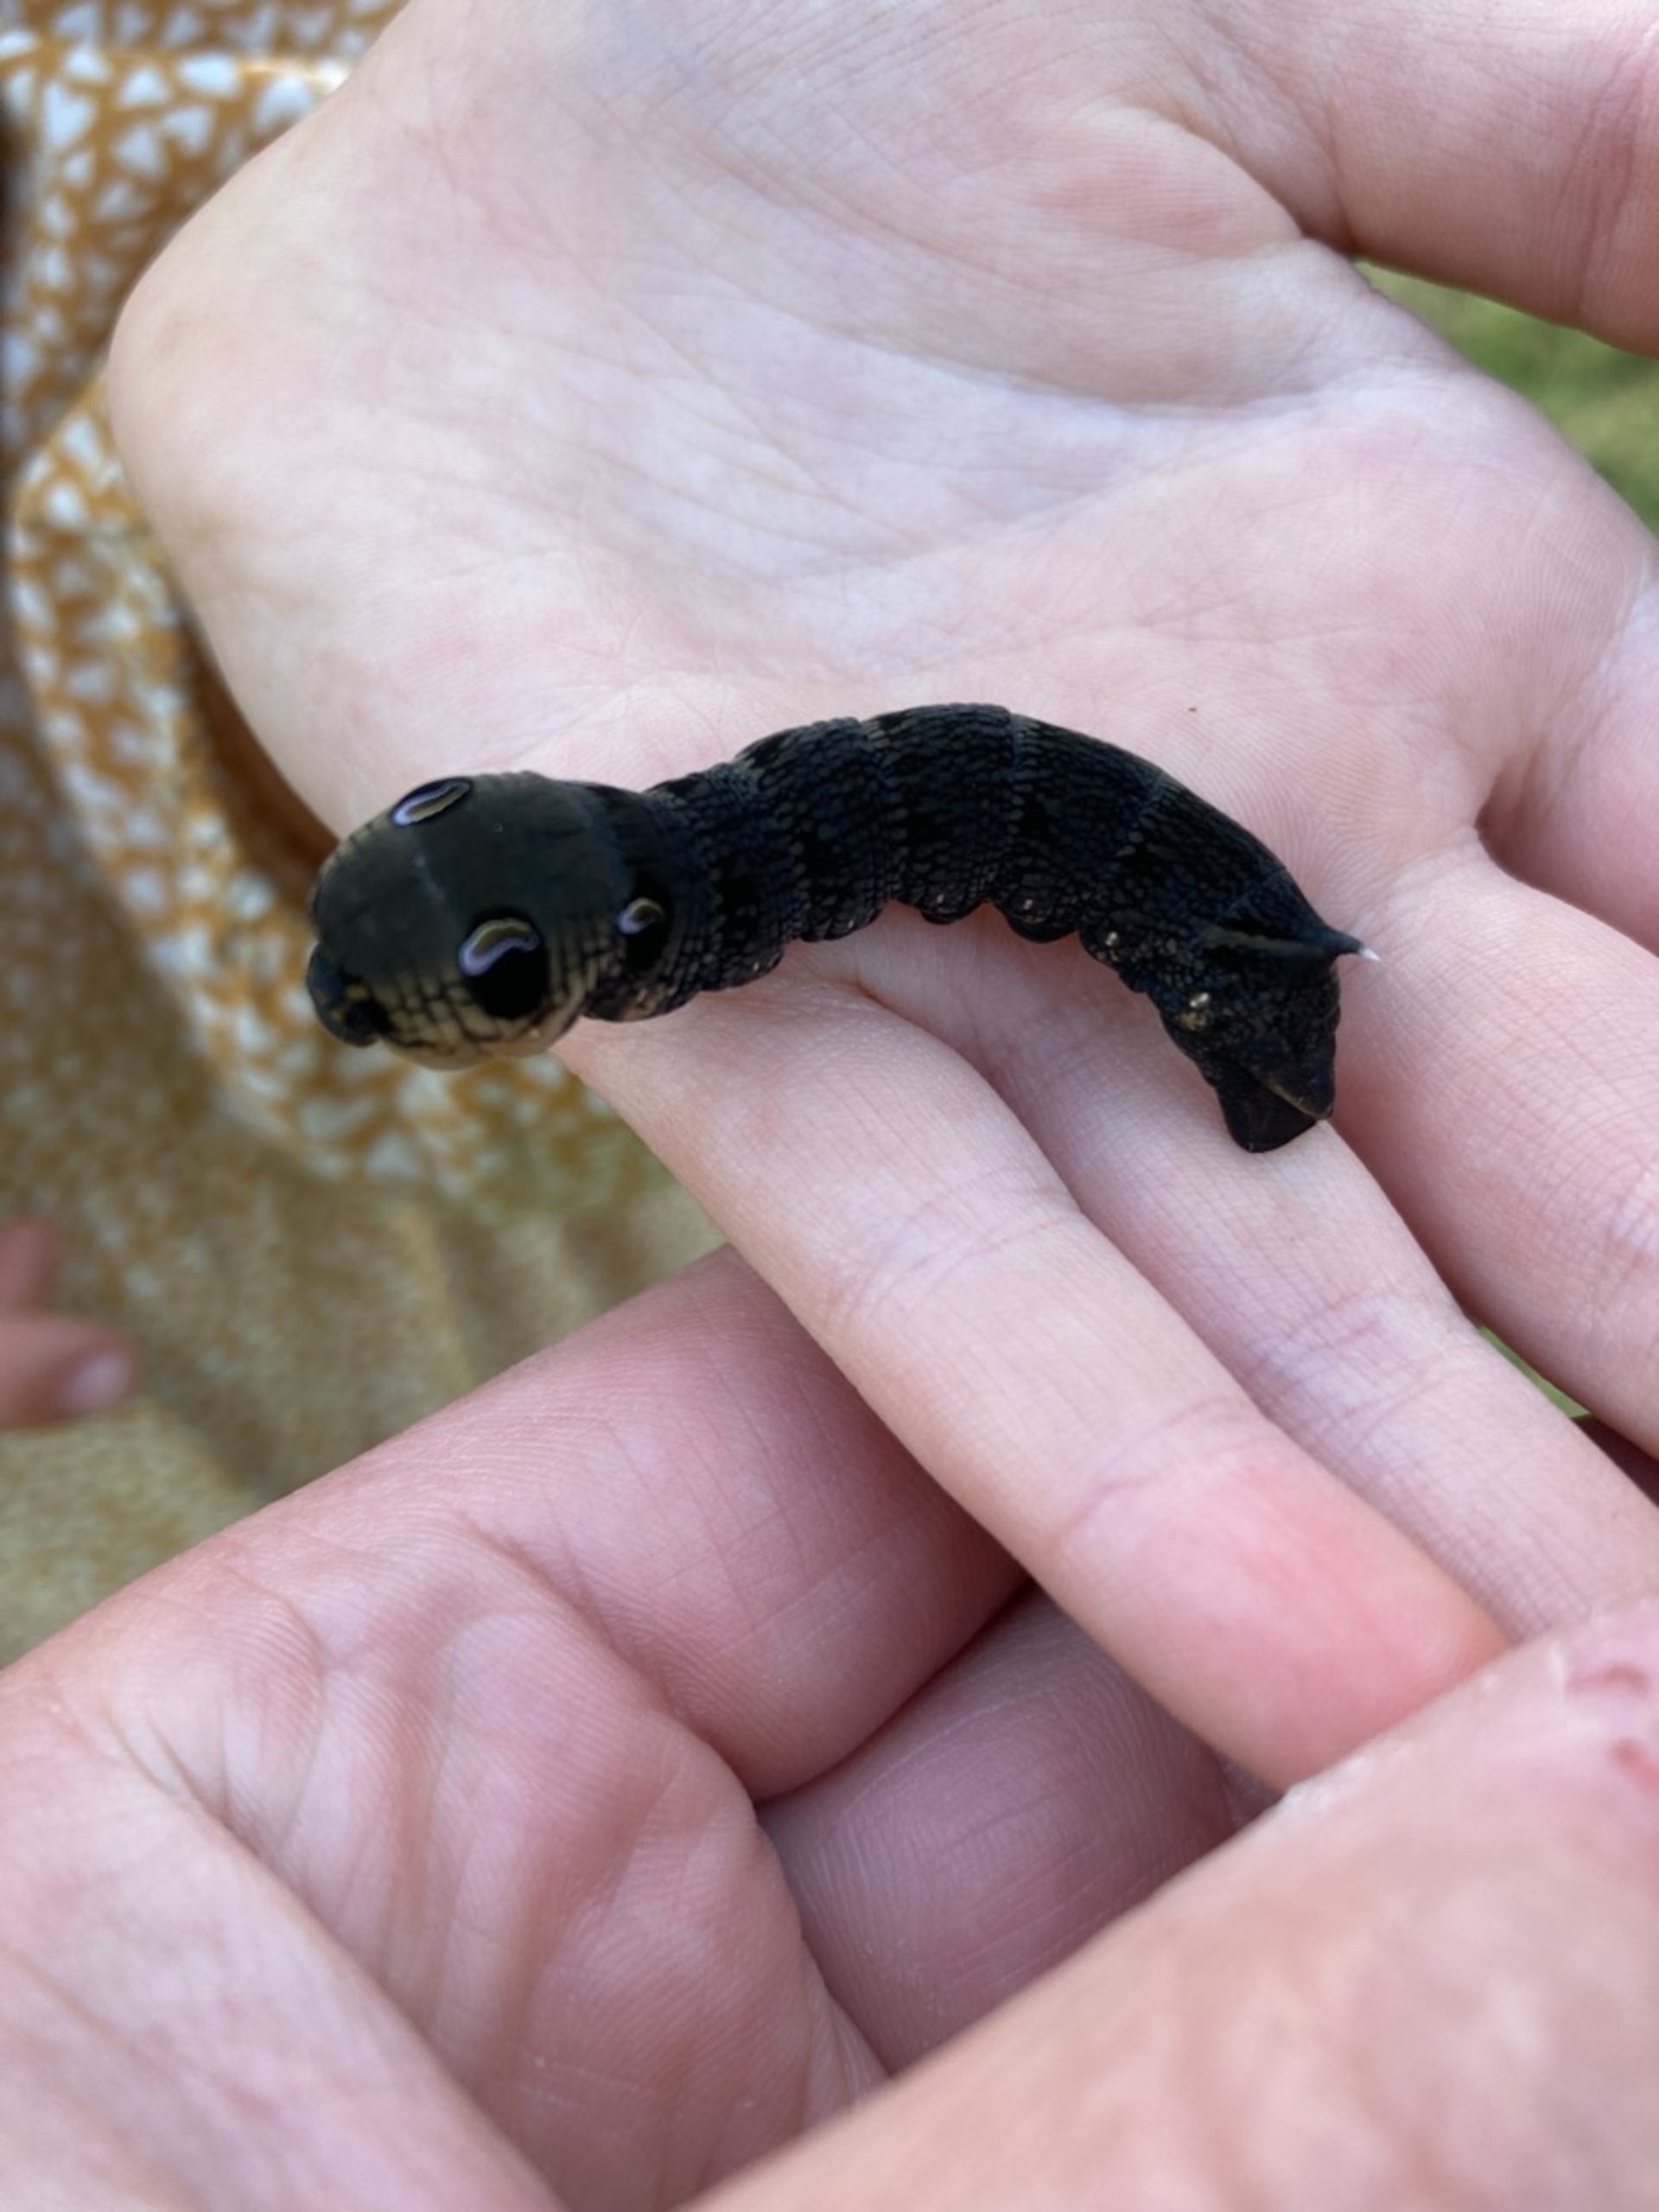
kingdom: Animalia
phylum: Arthropoda
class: Insecta
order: Lepidoptera
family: Sphingidae
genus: Deilephila
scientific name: Deilephila elpenor
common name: Dueurtsværmer
